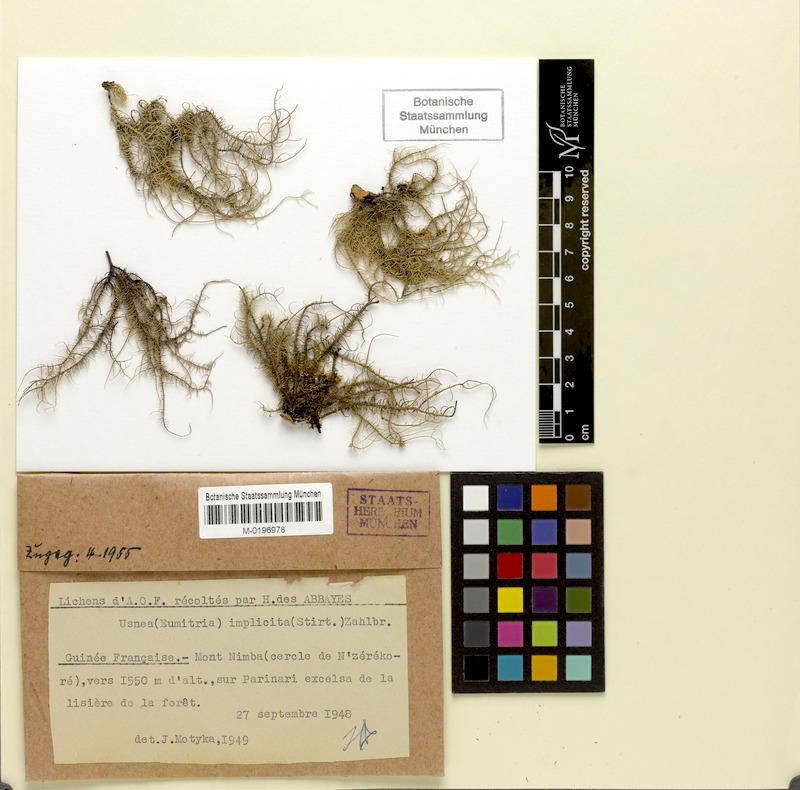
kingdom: Fungi
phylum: Ascomycota
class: Lecanoromycetes
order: Lecanorales
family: Parmeliaceae
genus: Eumitria
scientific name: Eumitria baileyi
